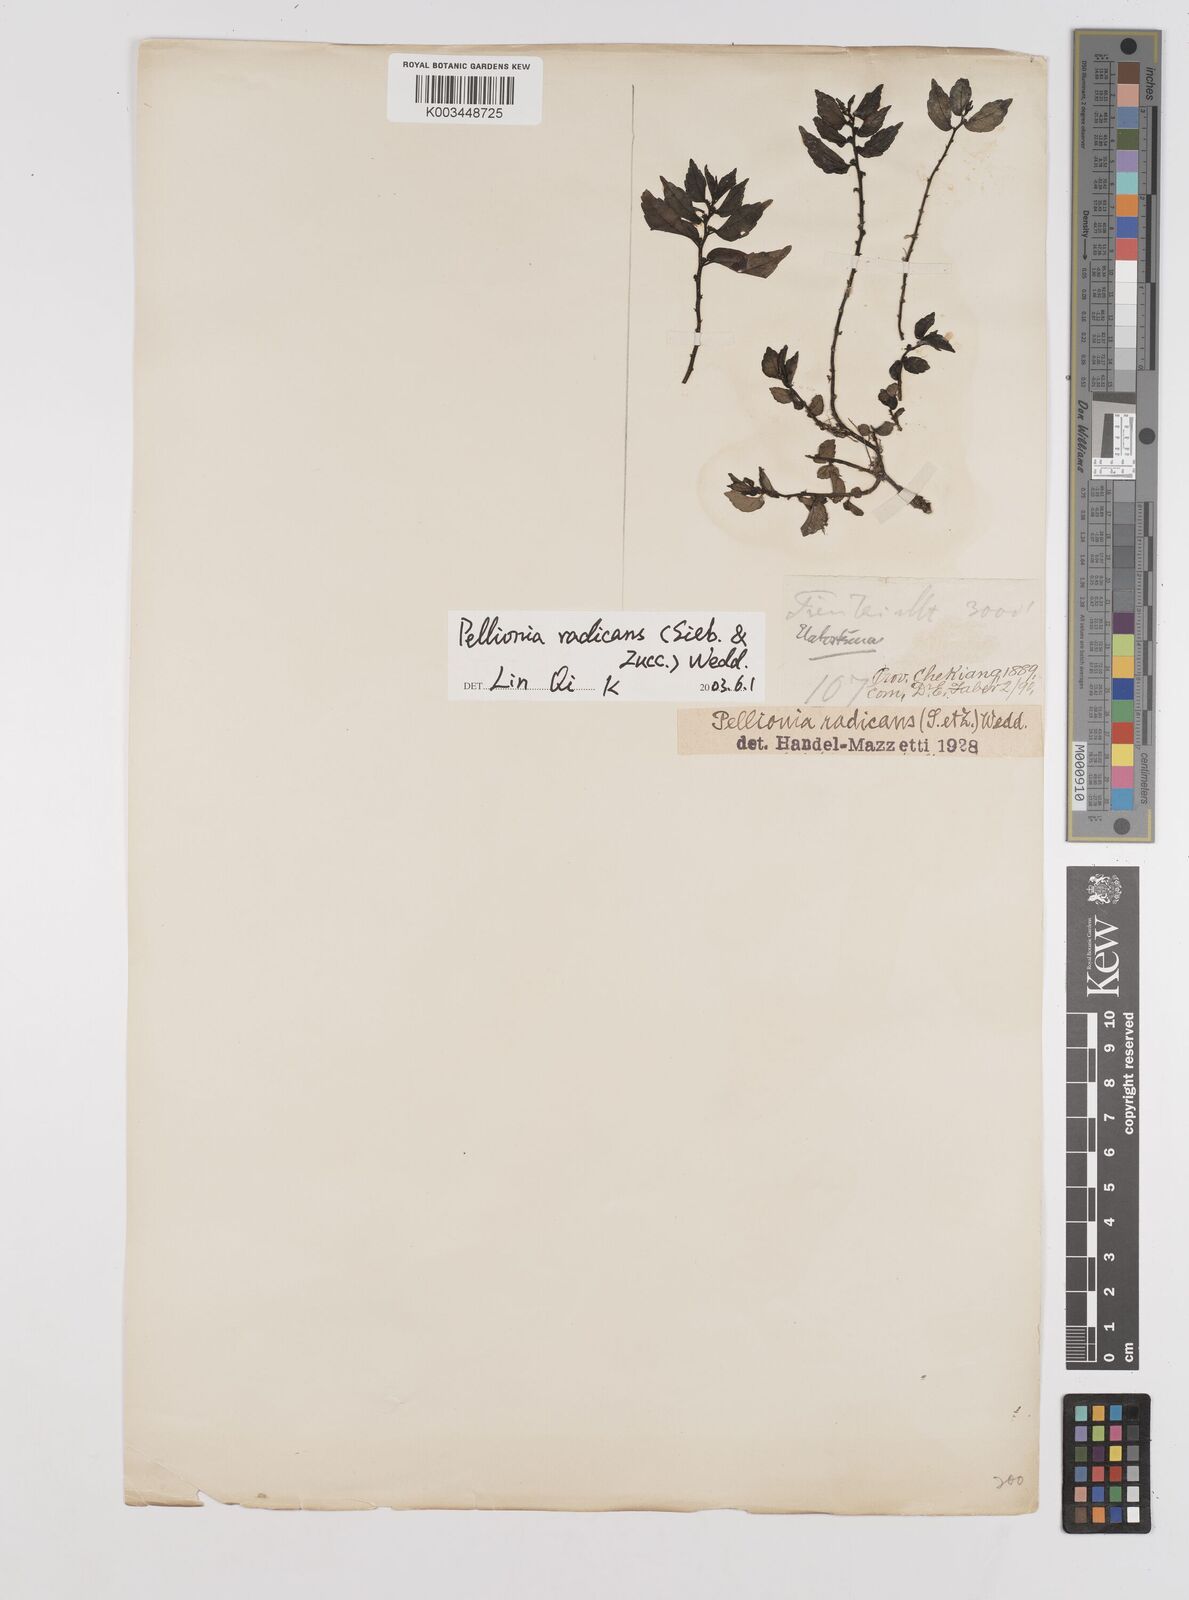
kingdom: Plantae
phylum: Tracheophyta
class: Magnoliopsida
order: Rosales
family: Urticaceae
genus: Elatostema
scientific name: Elatostema radicans
